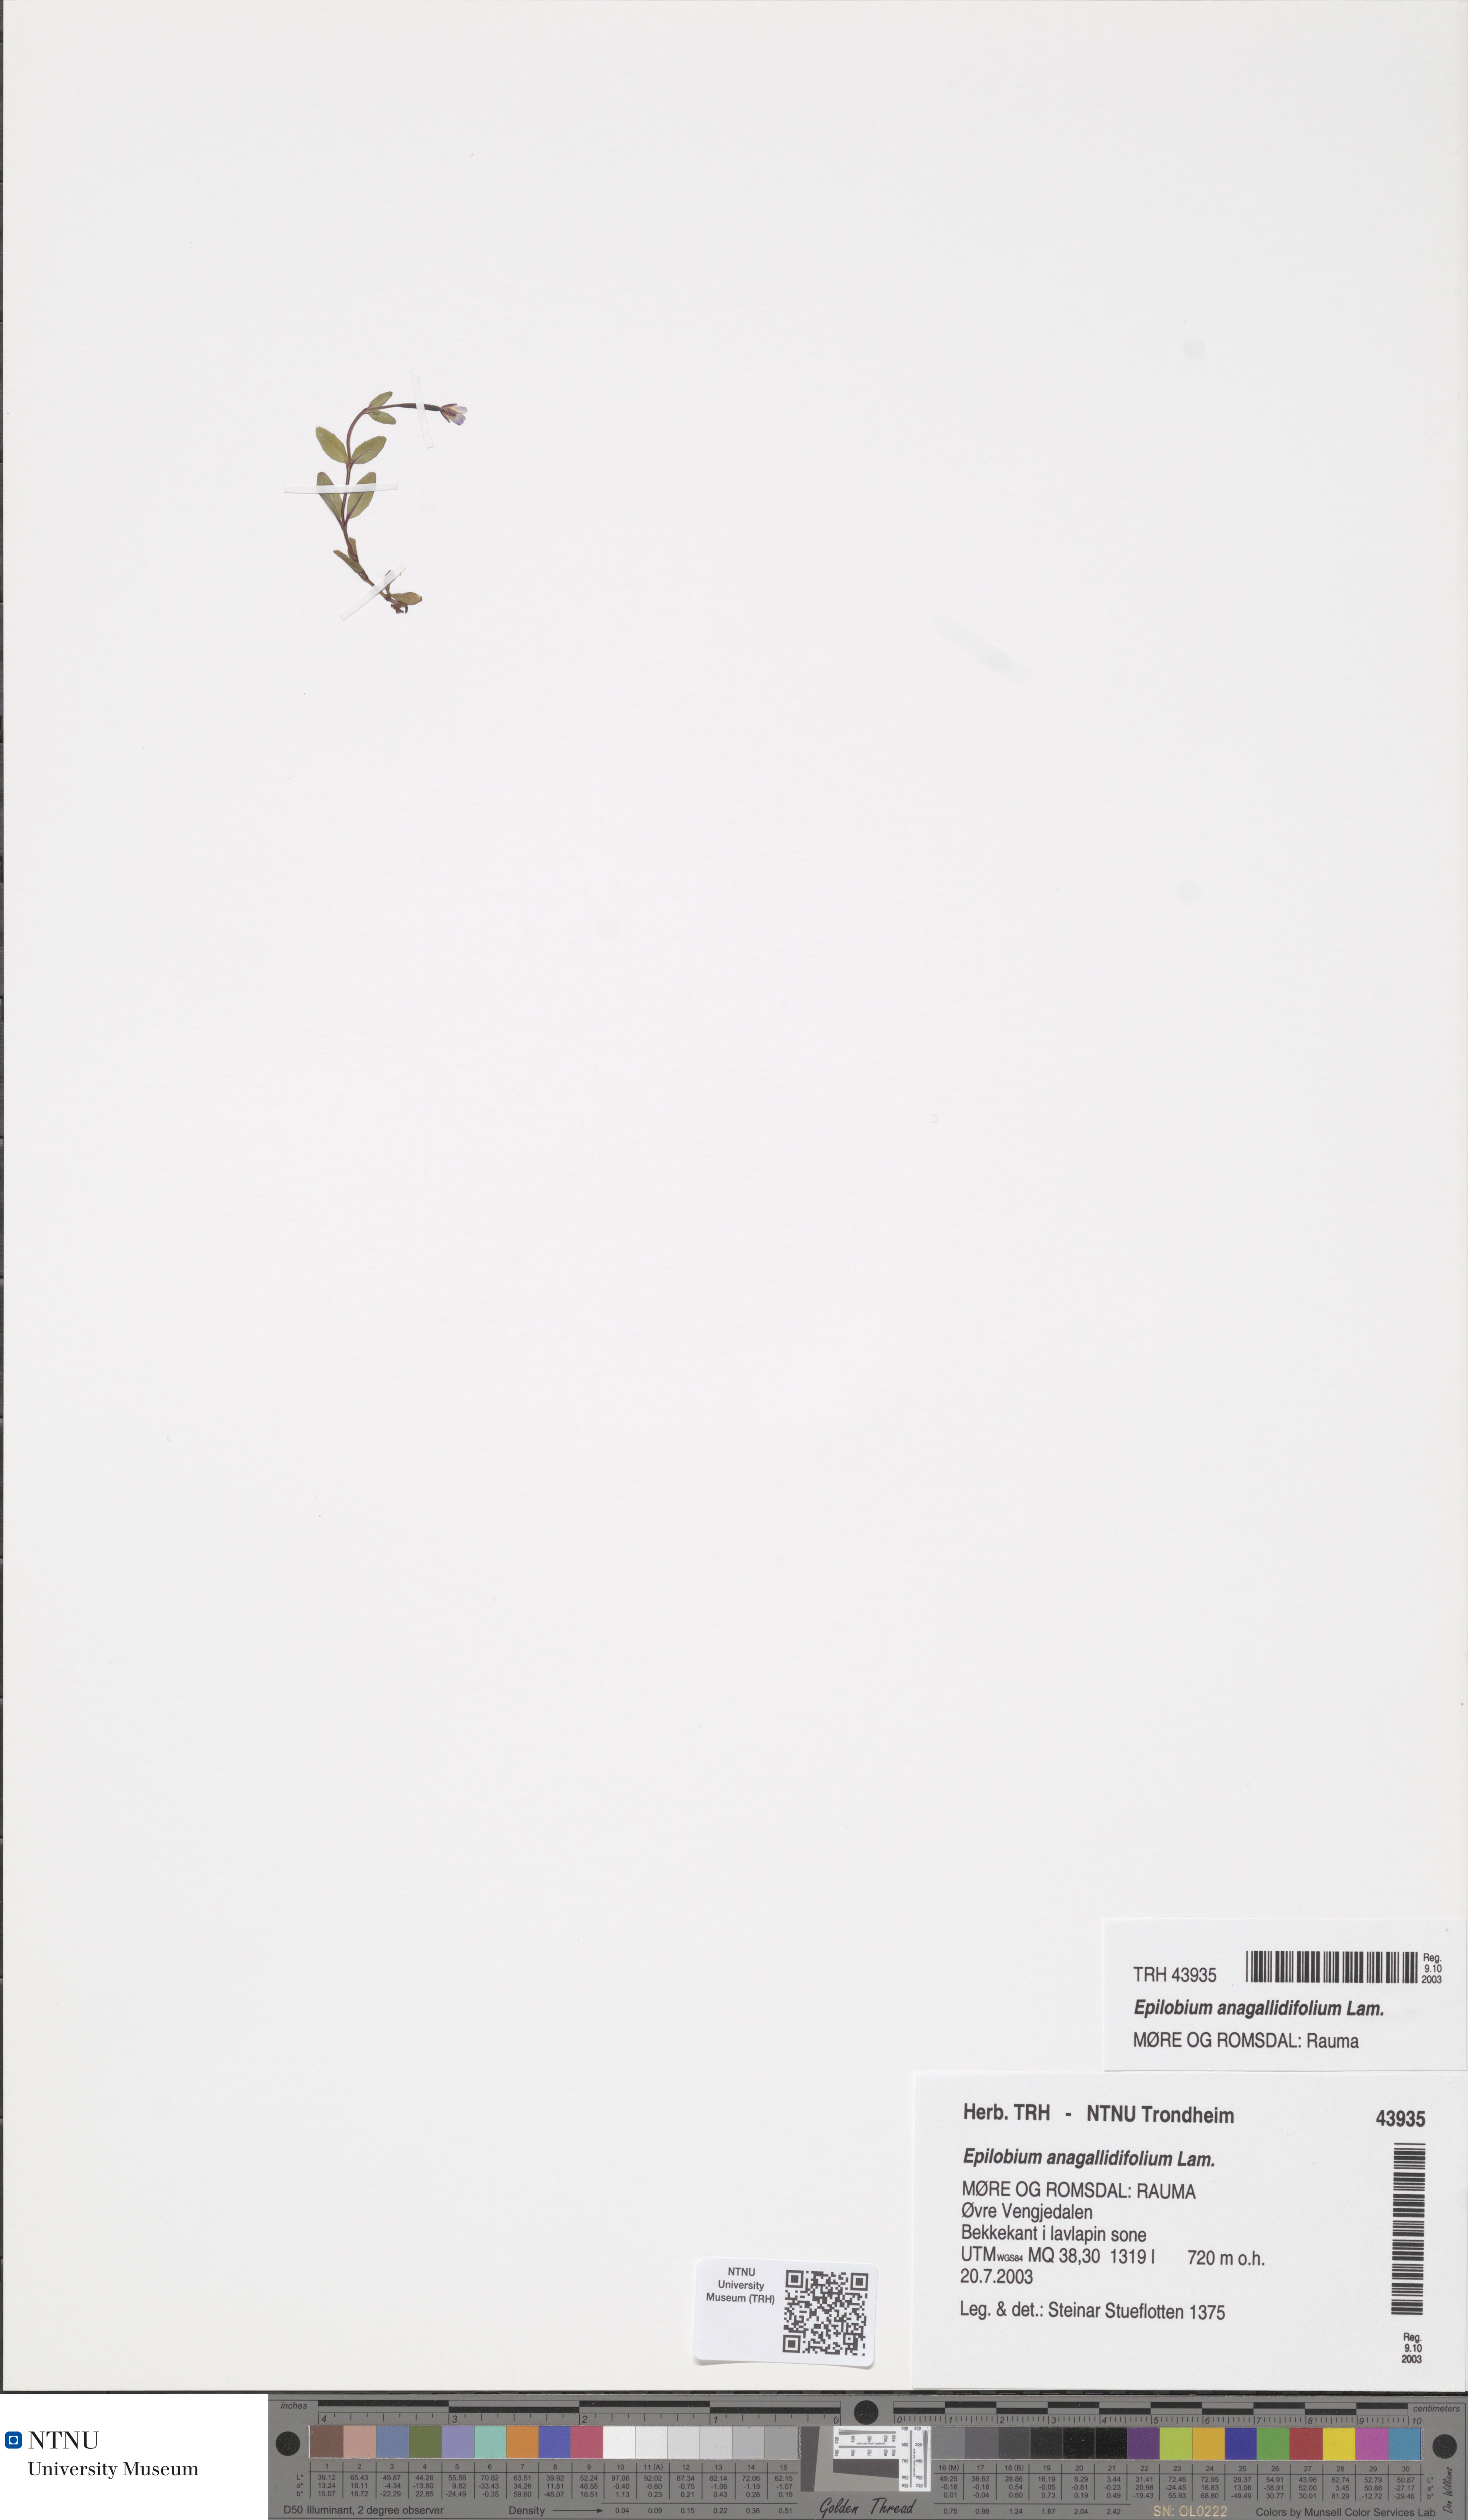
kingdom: Plantae
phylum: Tracheophyta
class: Magnoliopsida
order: Myrtales
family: Onagraceae
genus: Epilobium
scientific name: Epilobium anagallidifolium
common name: Alpine willowherb
